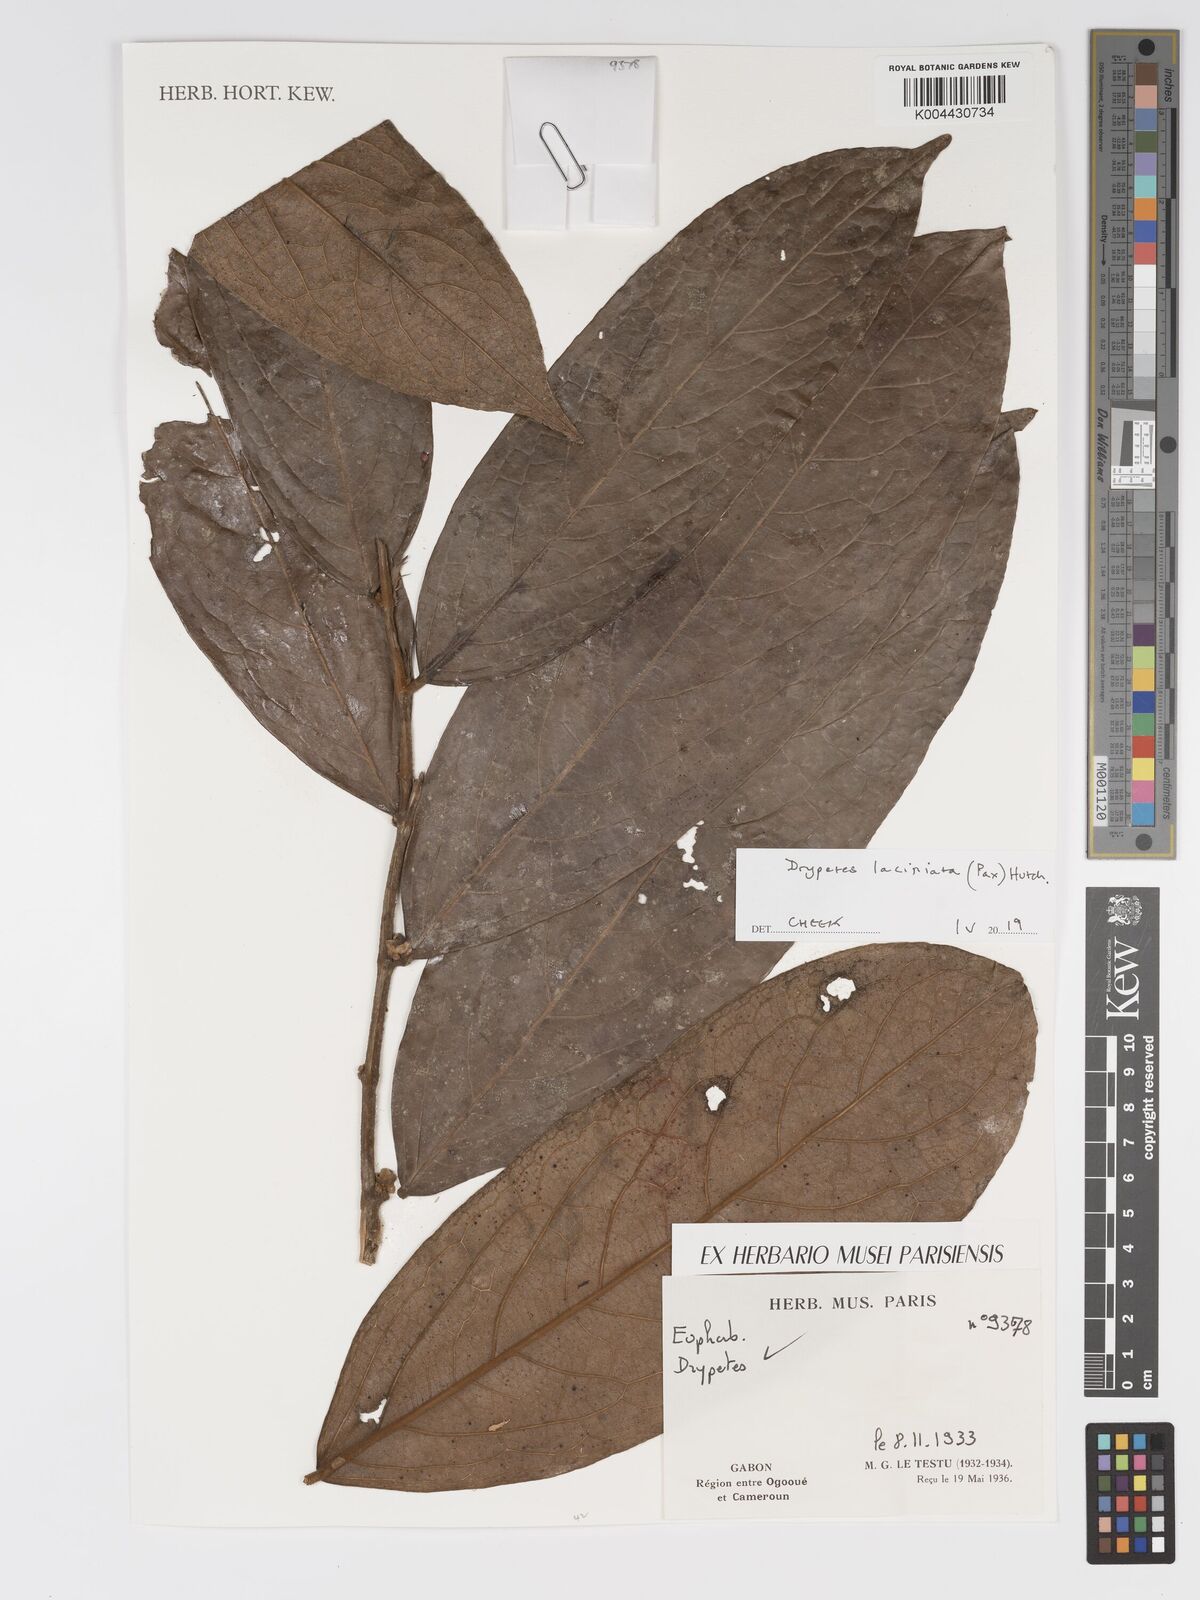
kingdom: Plantae
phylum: Tracheophyta
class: Magnoliopsida
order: Malpighiales
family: Putranjivaceae
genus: Drypetes
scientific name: Drypetes laciniata
